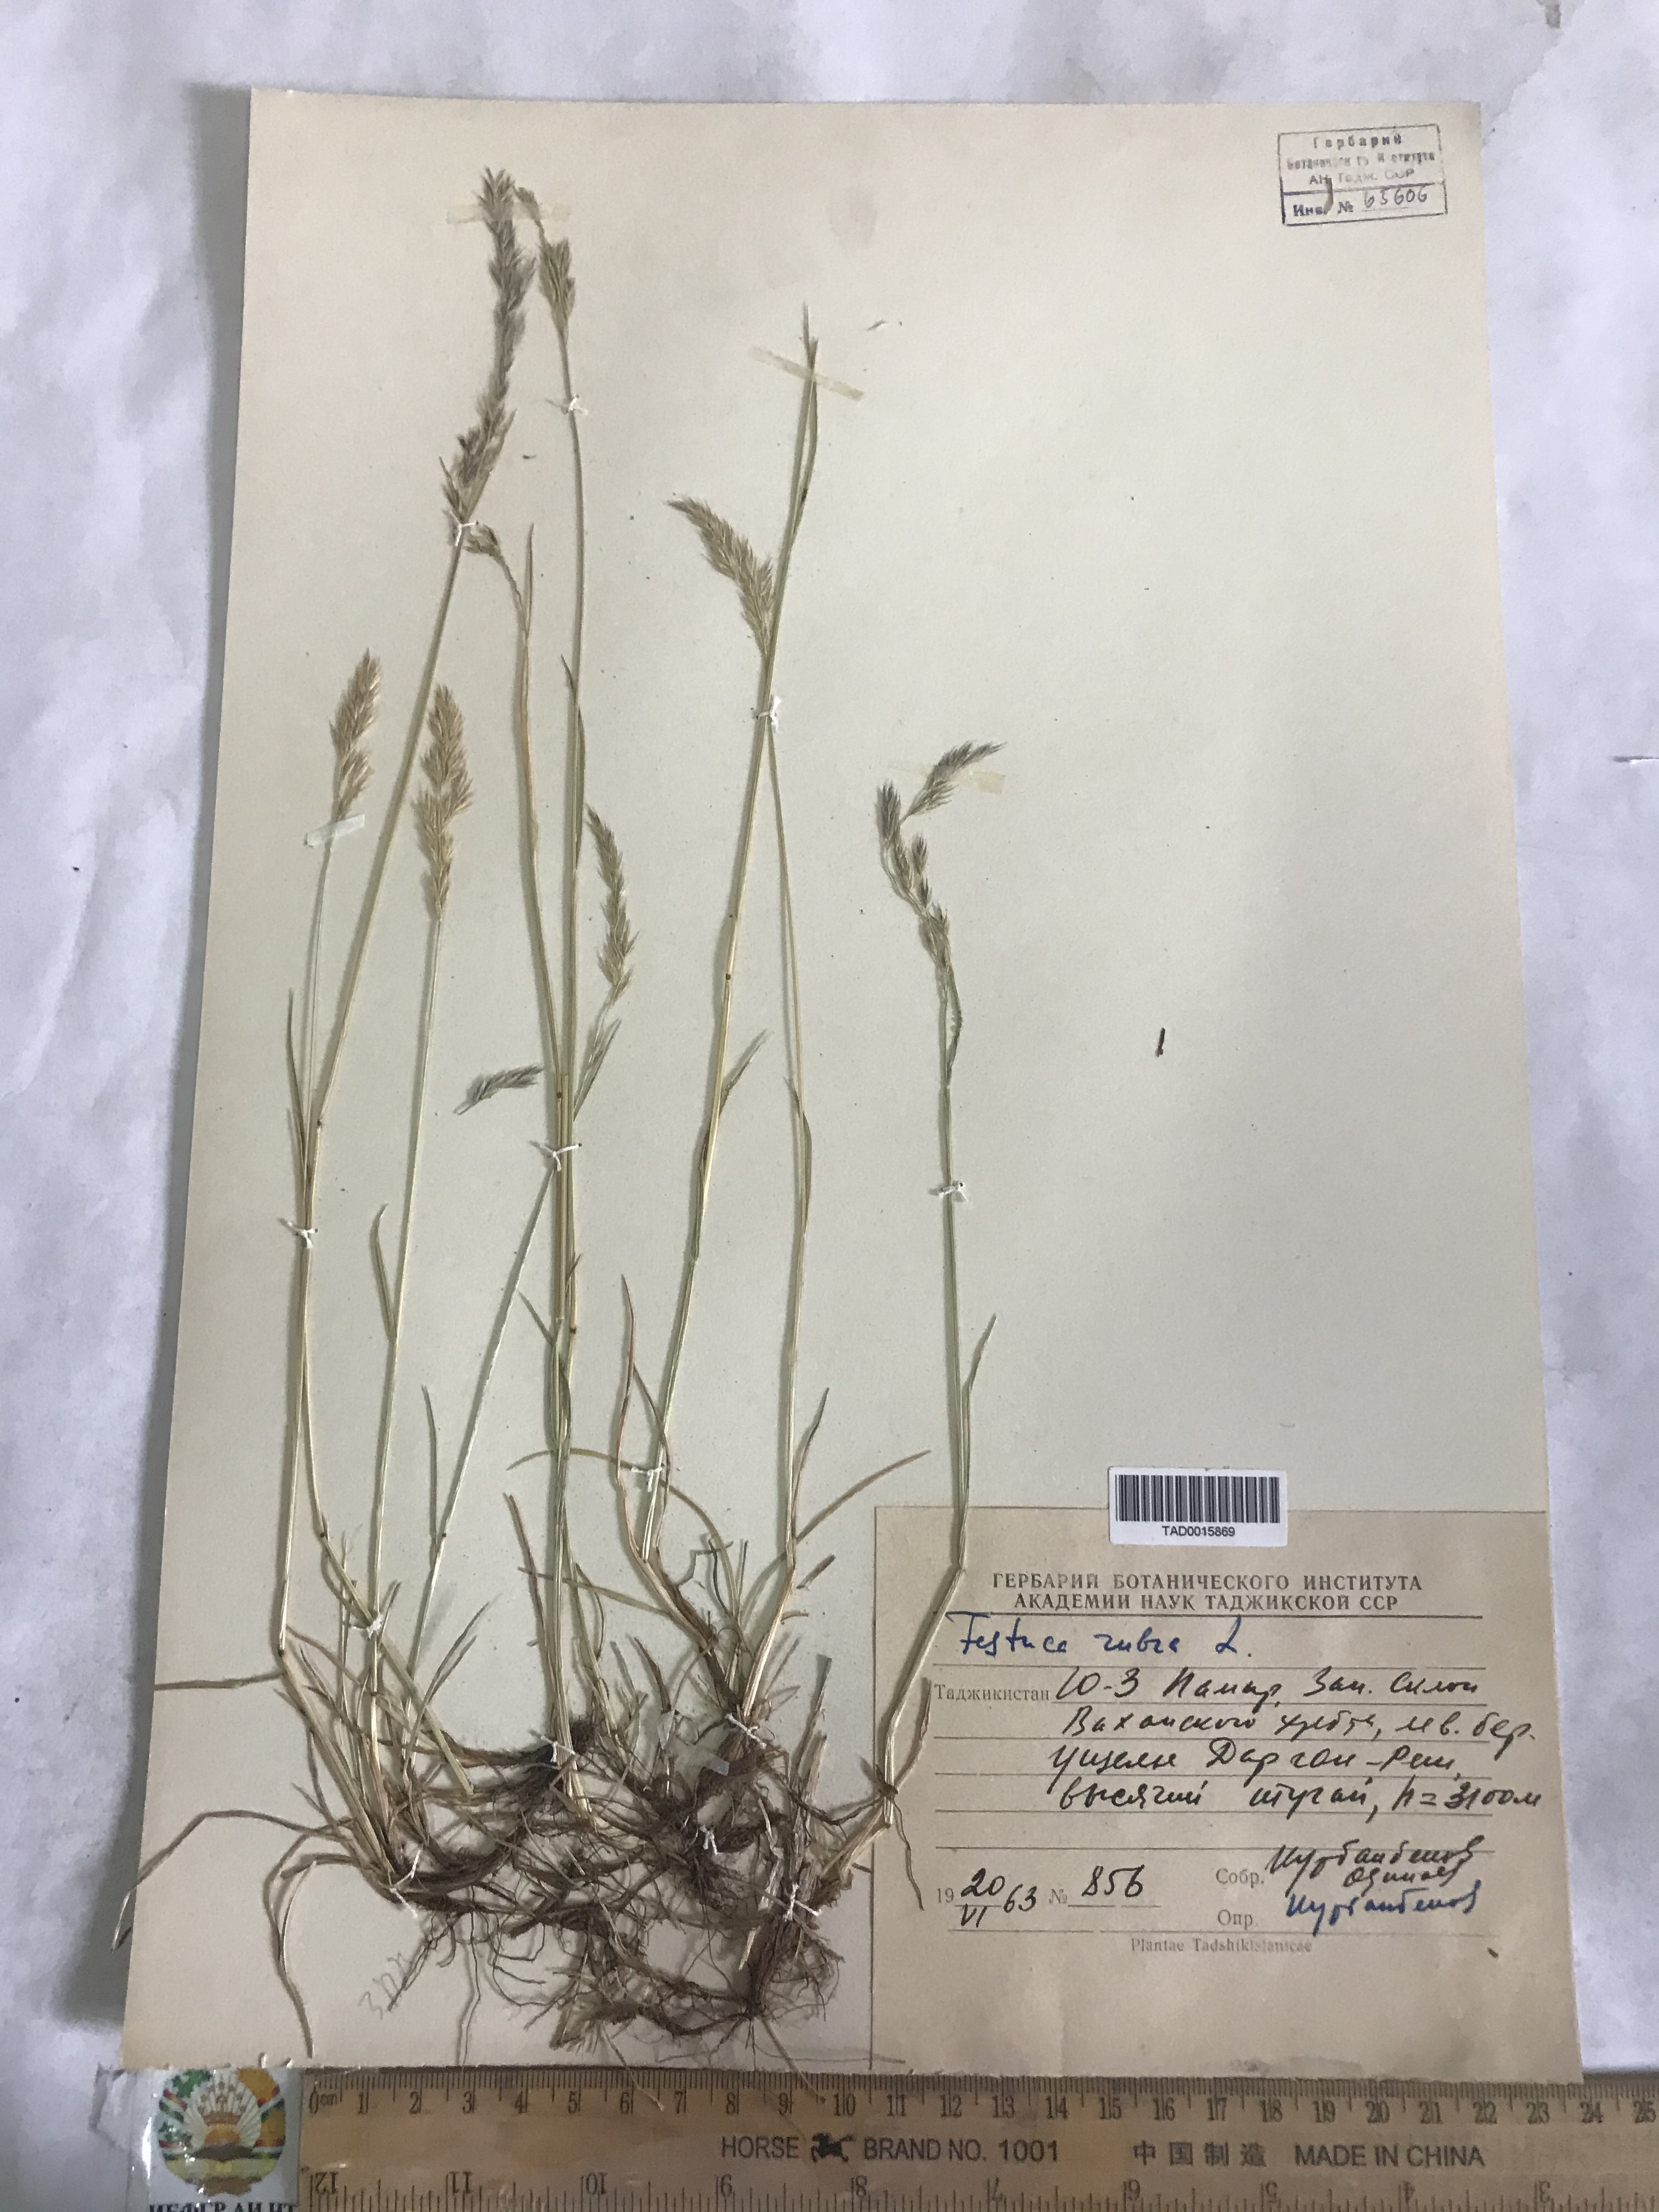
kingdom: Plantae
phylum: Tracheophyta
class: Liliopsida
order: Poales
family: Poaceae
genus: Festuca
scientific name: Festuca rubra
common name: Red fescue
